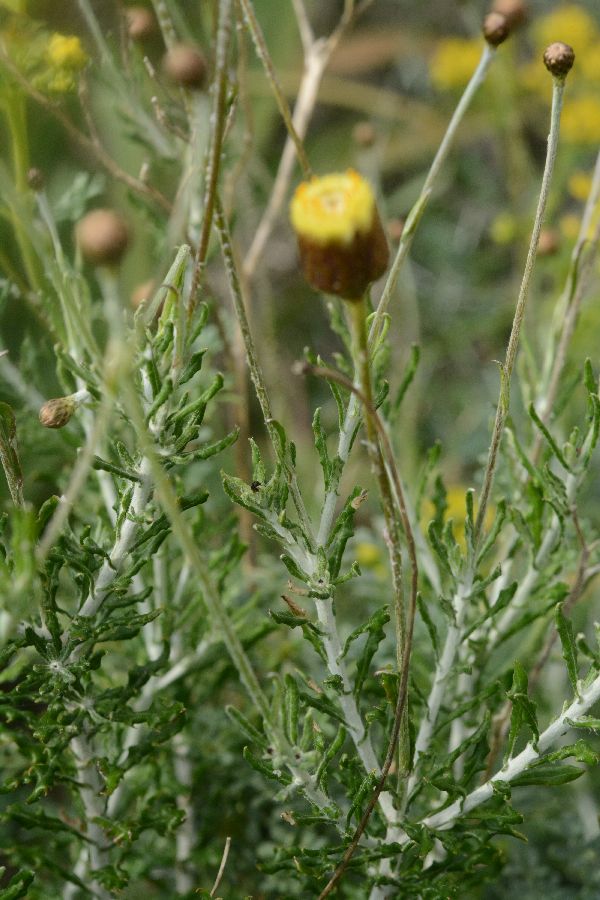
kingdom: Plantae
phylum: Tracheophyta
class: Magnoliopsida
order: Asterales
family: Asteraceae
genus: Phagnalon
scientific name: Phagnalon rupestre
